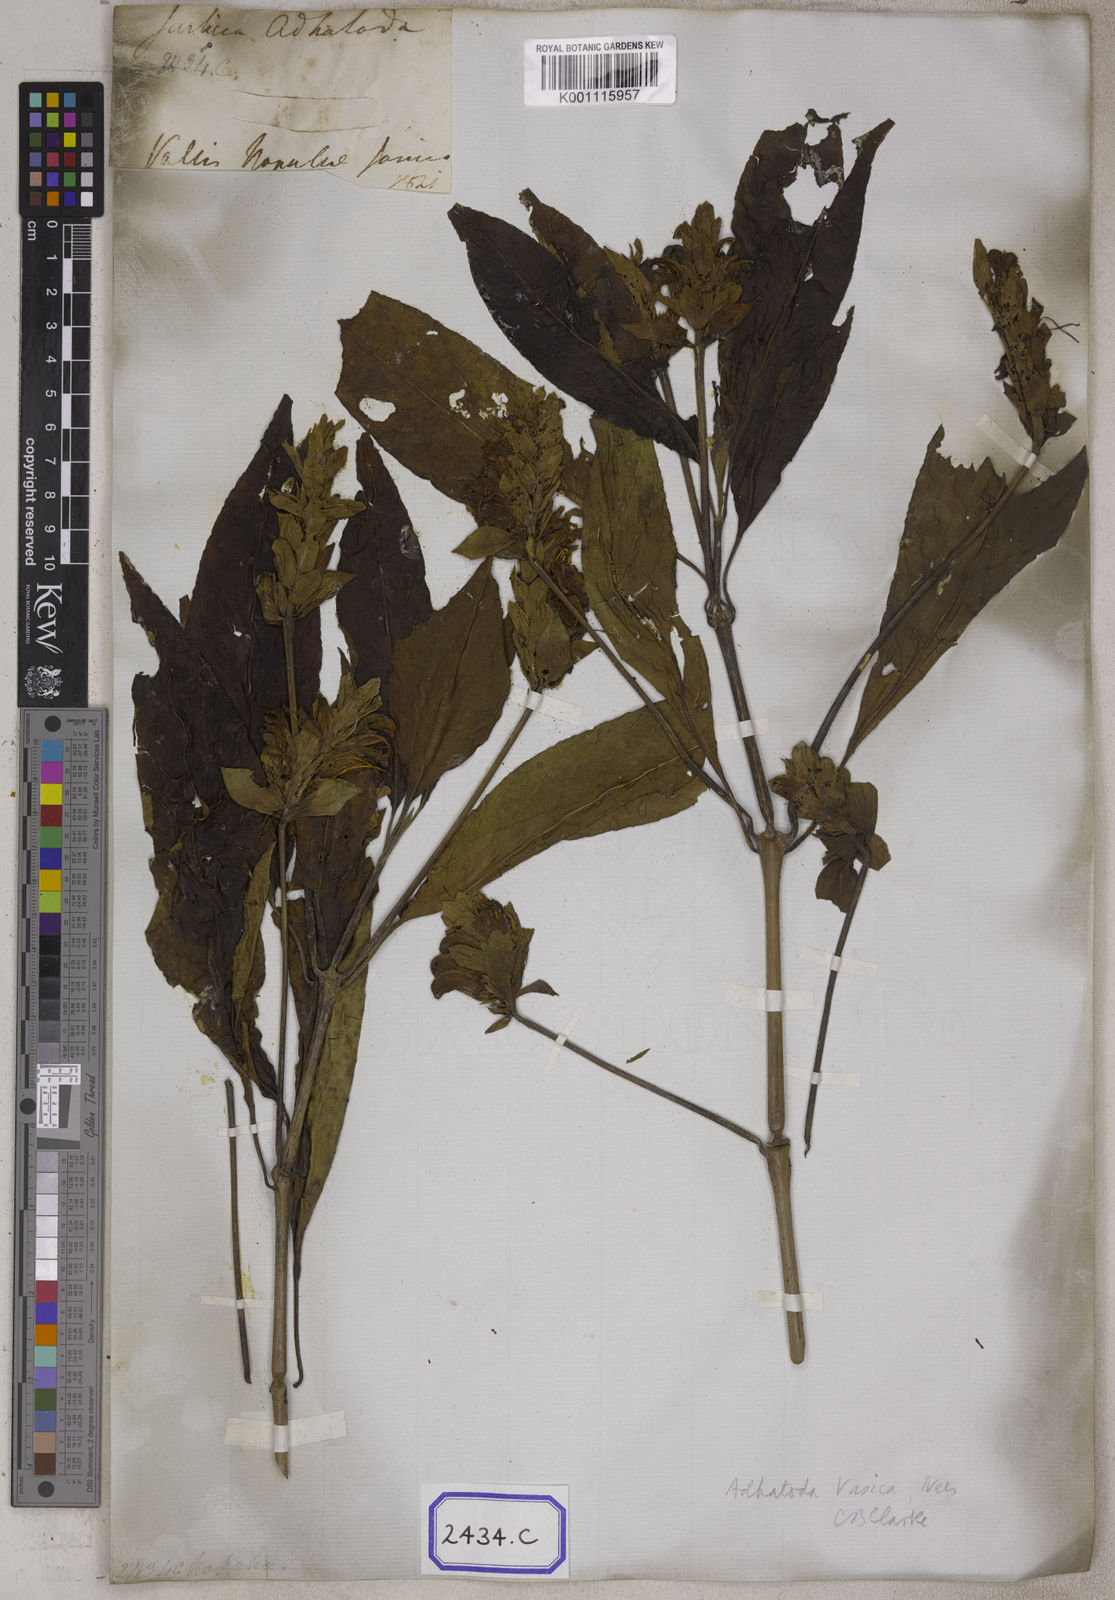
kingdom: Plantae
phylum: Tracheophyta
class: Magnoliopsida
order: Lamiales
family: Acanthaceae
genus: Justicia
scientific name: Justicia adhatoda
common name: Malabar nut
